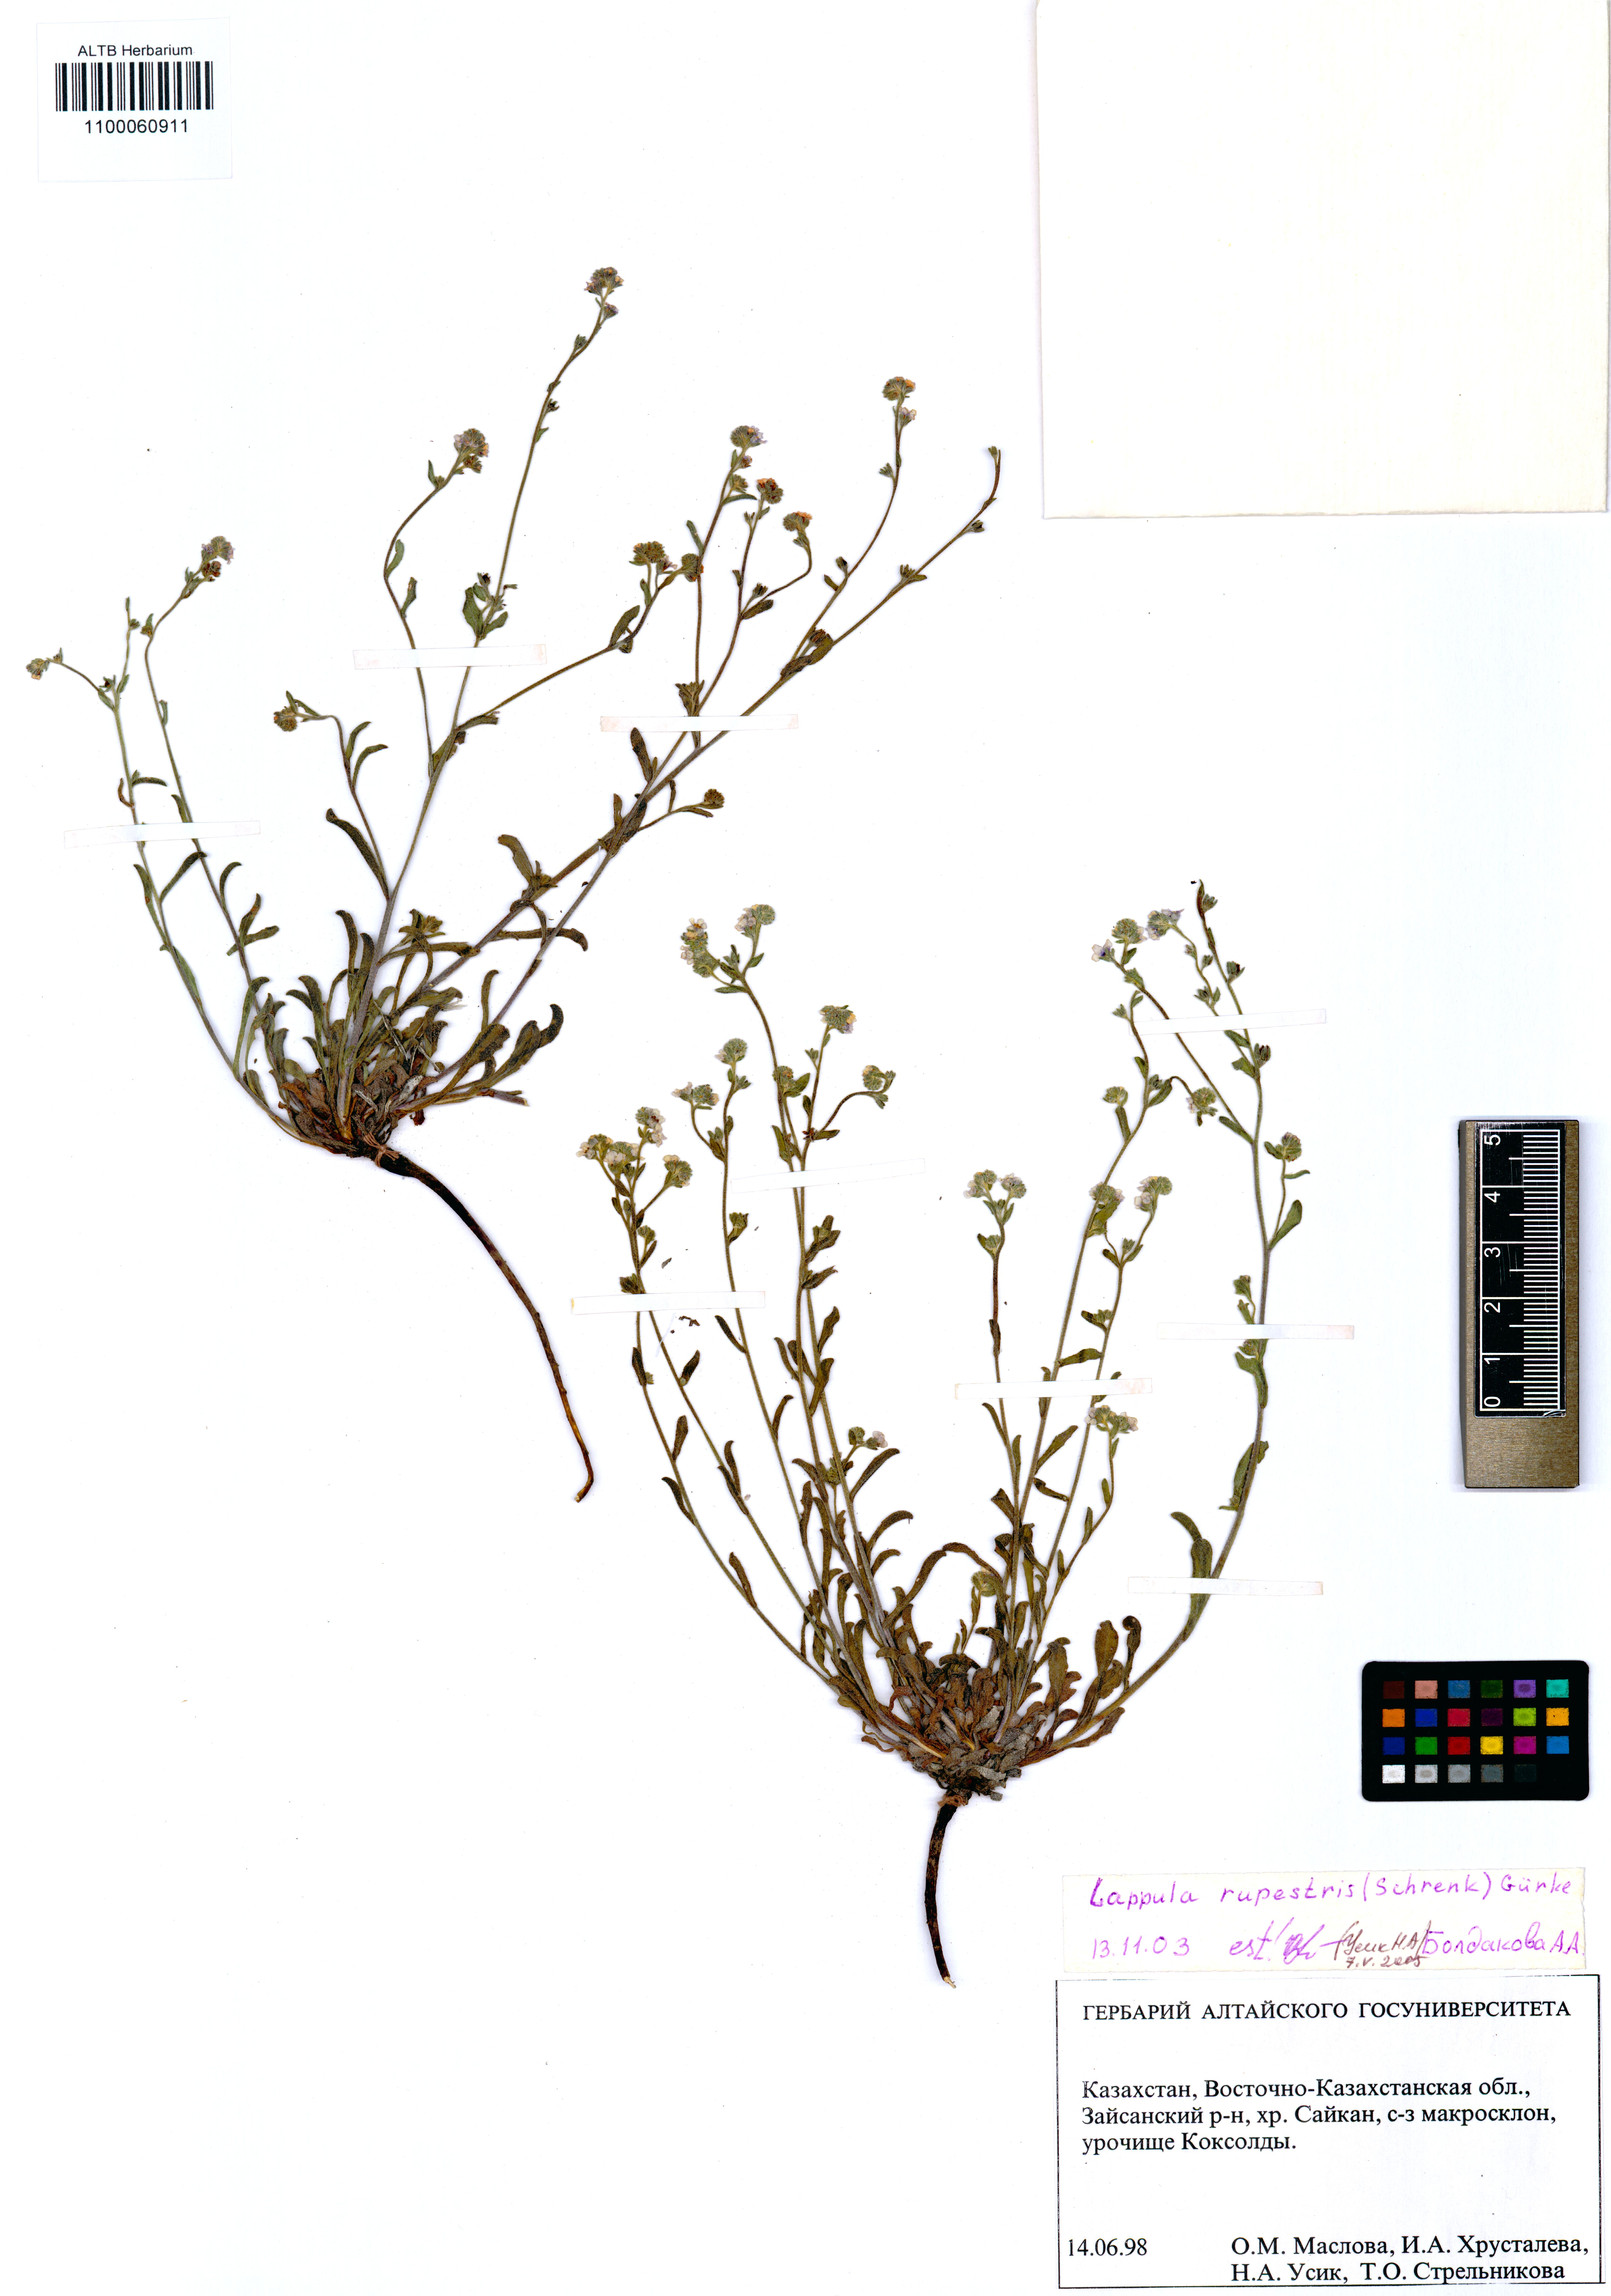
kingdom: Plantae
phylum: Tracheophyta
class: Magnoliopsida
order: Boraginales
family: Boraginaceae
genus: Lappula
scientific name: Lappula rupestris
